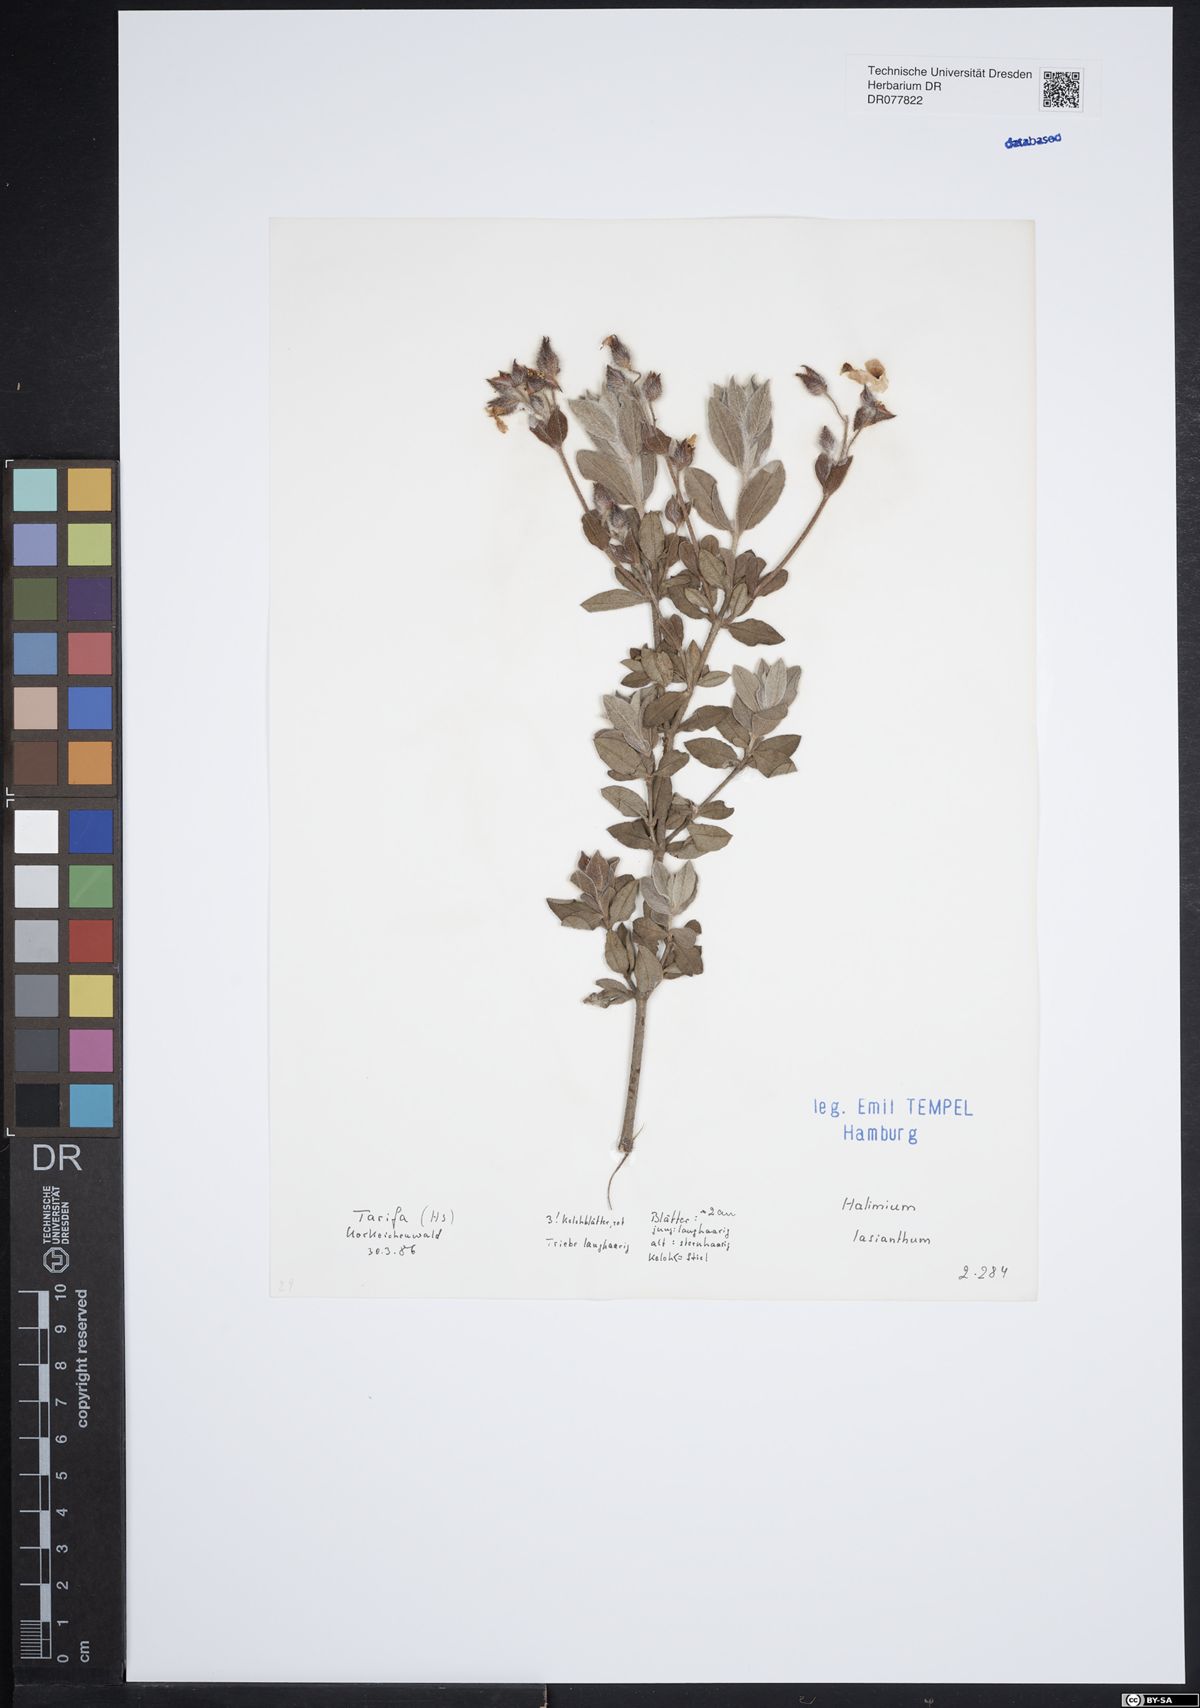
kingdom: Plantae
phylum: Tracheophyta
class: Magnoliopsida
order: Malvales
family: Cistaceae
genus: Halimium
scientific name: Halimium lasianthum
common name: Lisbon false sun-rose
